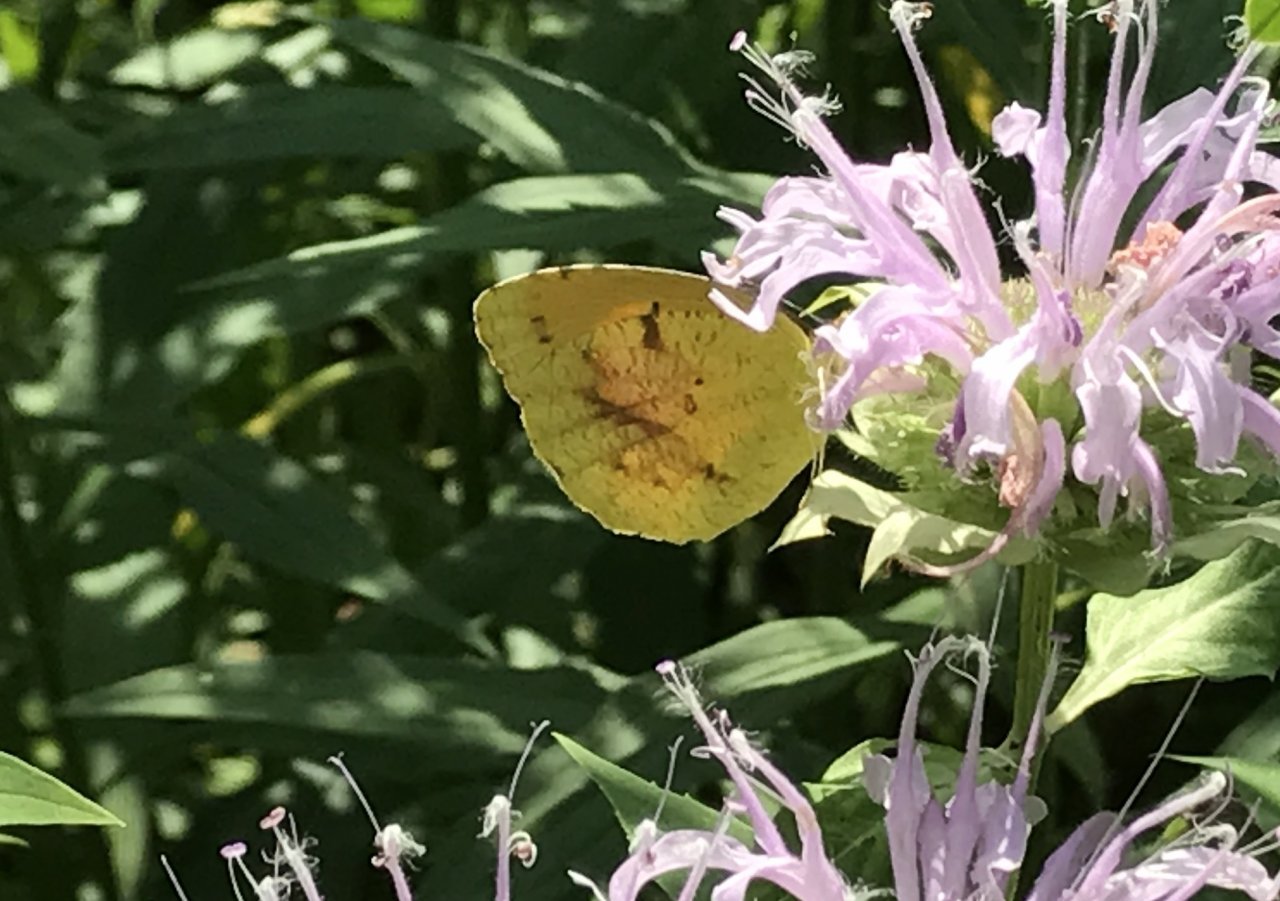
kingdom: Animalia
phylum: Arthropoda
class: Insecta
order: Lepidoptera
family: Pieridae
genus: Abaeis
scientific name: Abaeis nicippe
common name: Sleepy Orange
